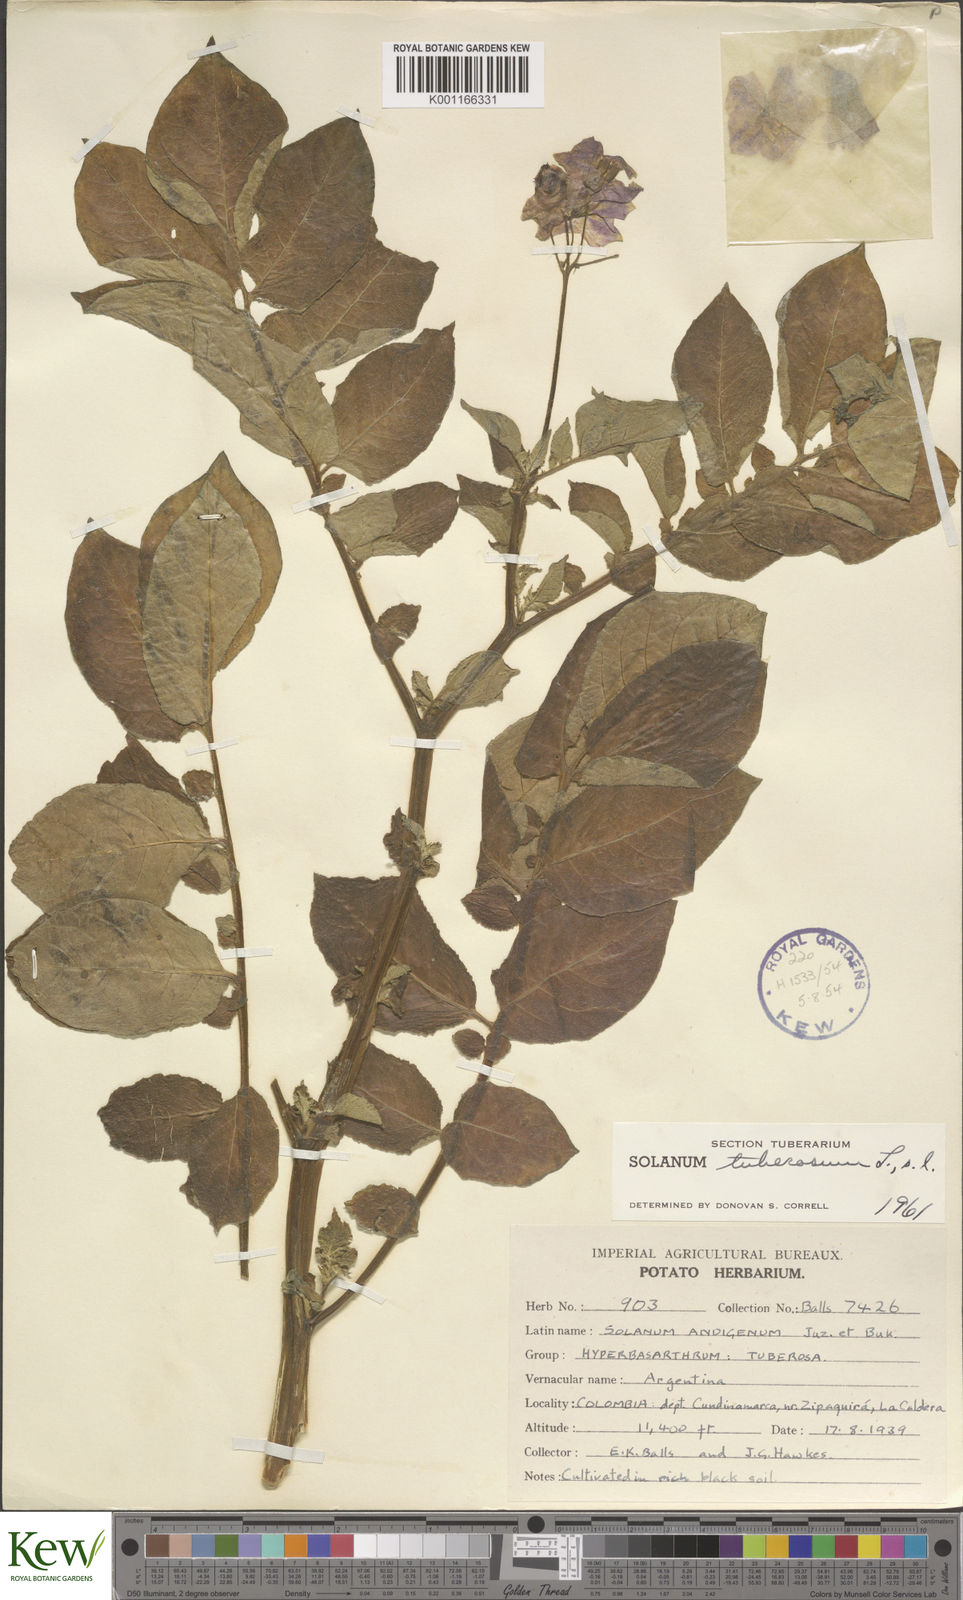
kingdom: Plantae
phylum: Tracheophyta
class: Magnoliopsida
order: Solanales
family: Solanaceae
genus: Solanum
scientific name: Solanum tuberosum
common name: Potato
